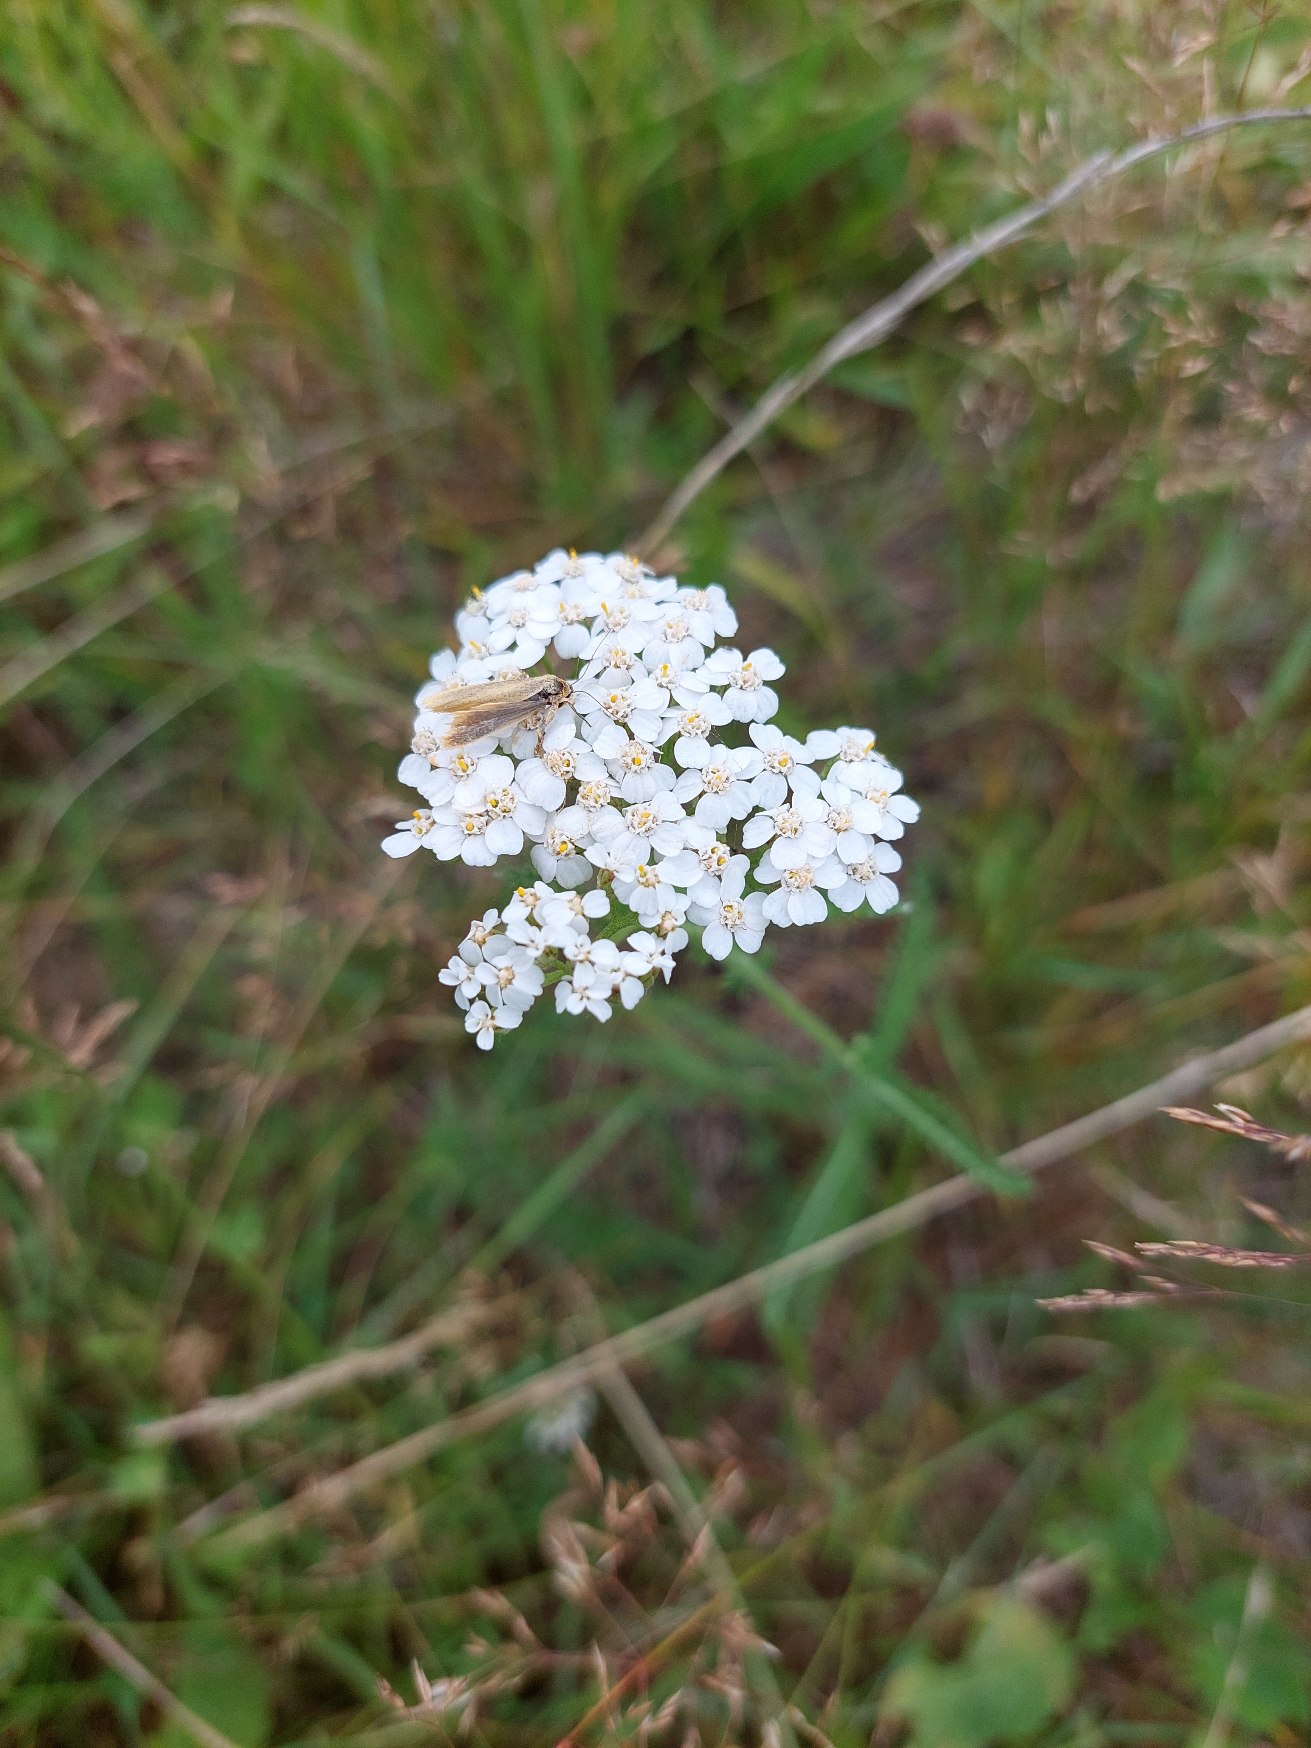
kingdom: Plantae
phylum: Tracheophyta
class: Magnoliopsida
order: Asterales
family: Asteraceae
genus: Achillea
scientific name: Achillea millefolium
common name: Almindelig røllike
